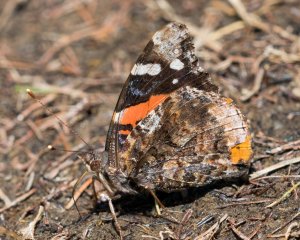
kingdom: Animalia
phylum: Arthropoda
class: Insecta
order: Lepidoptera
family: Nymphalidae
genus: Vanessa
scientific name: Vanessa atalanta
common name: Red Admiral
